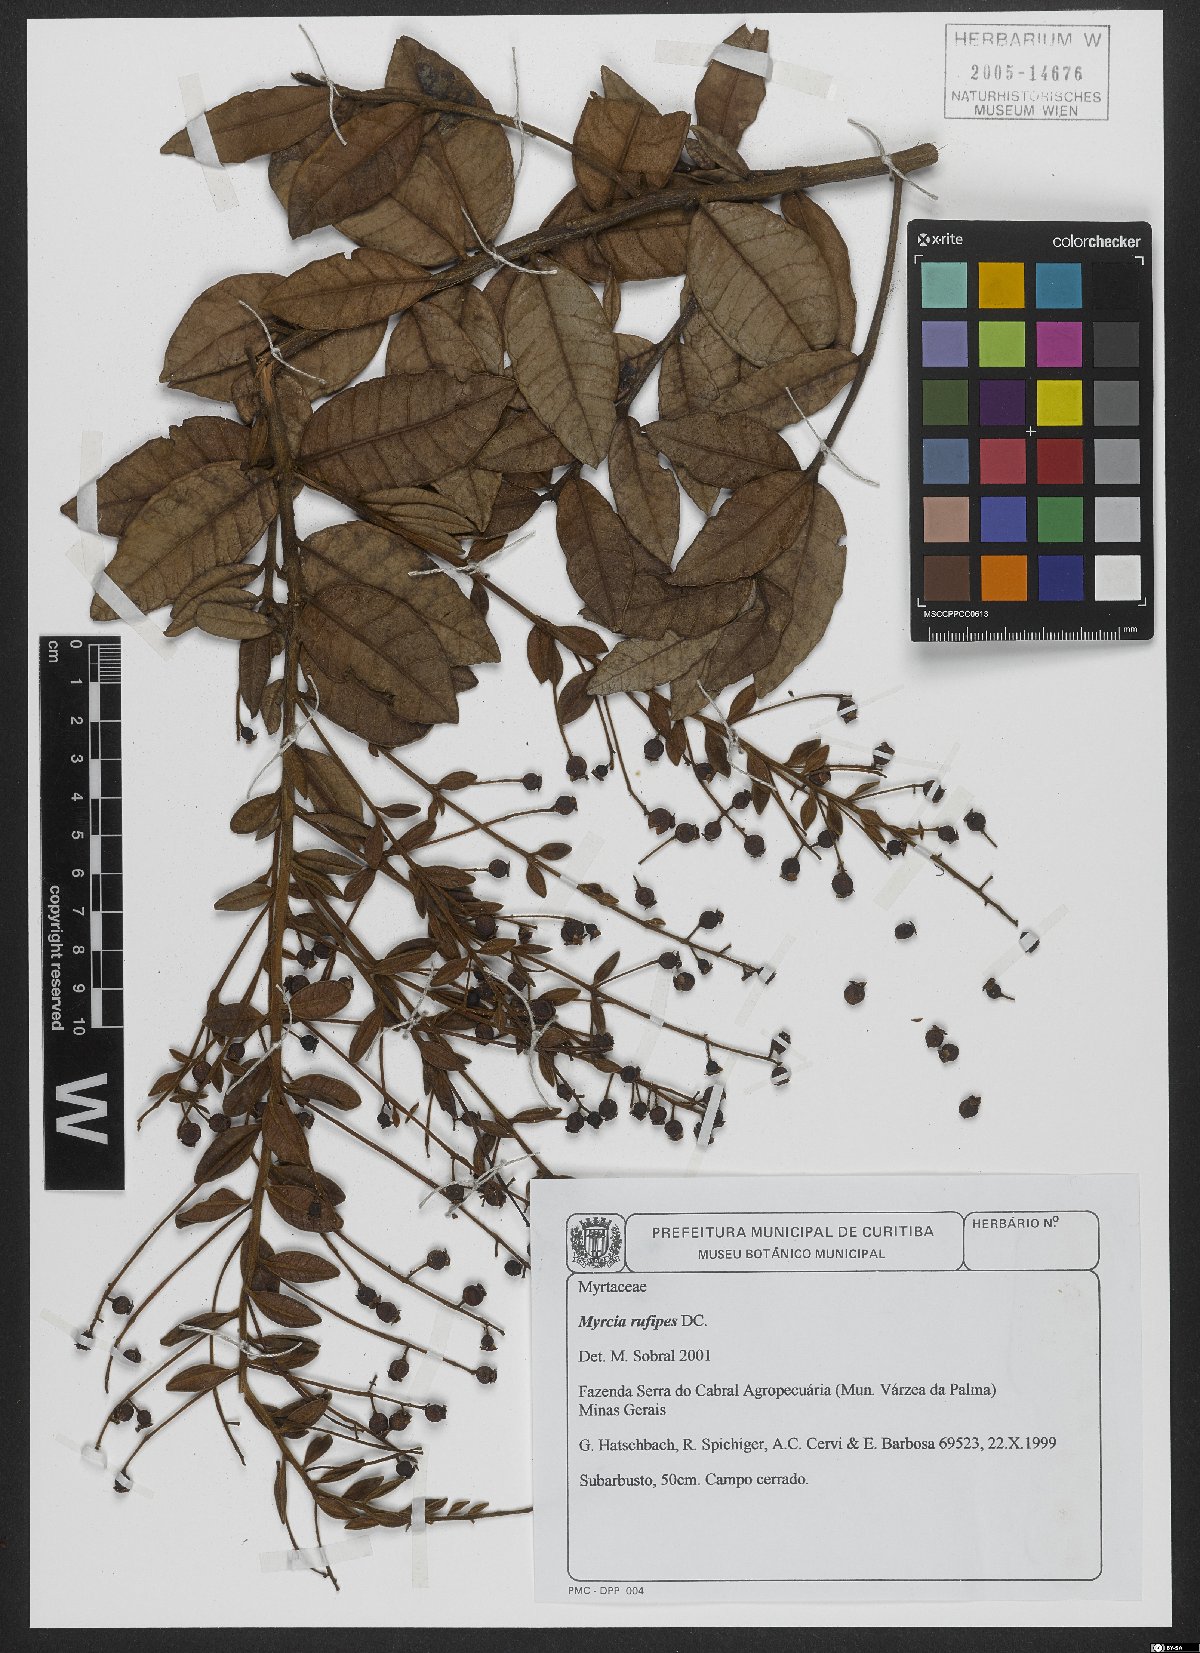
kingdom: Plantae
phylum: Tracheophyta
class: Magnoliopsida
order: Myrtales
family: Myrtaceae
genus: Myrcia
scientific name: Myrcia rufipes
